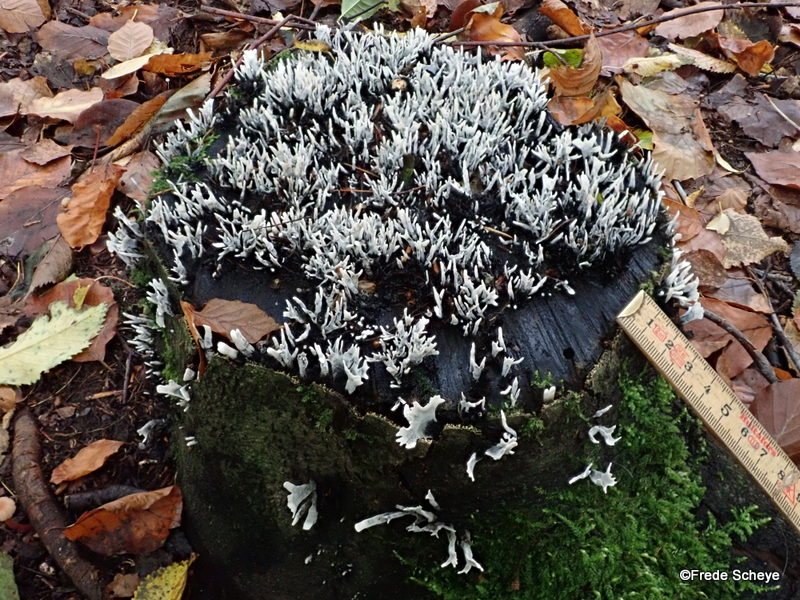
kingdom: Fungi
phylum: Ascomycota
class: Sordariomycetes
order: Xylariales
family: Xylariaceae
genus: Xylaria
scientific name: Xylaria hypoxylon
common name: grenet stødsvamp
